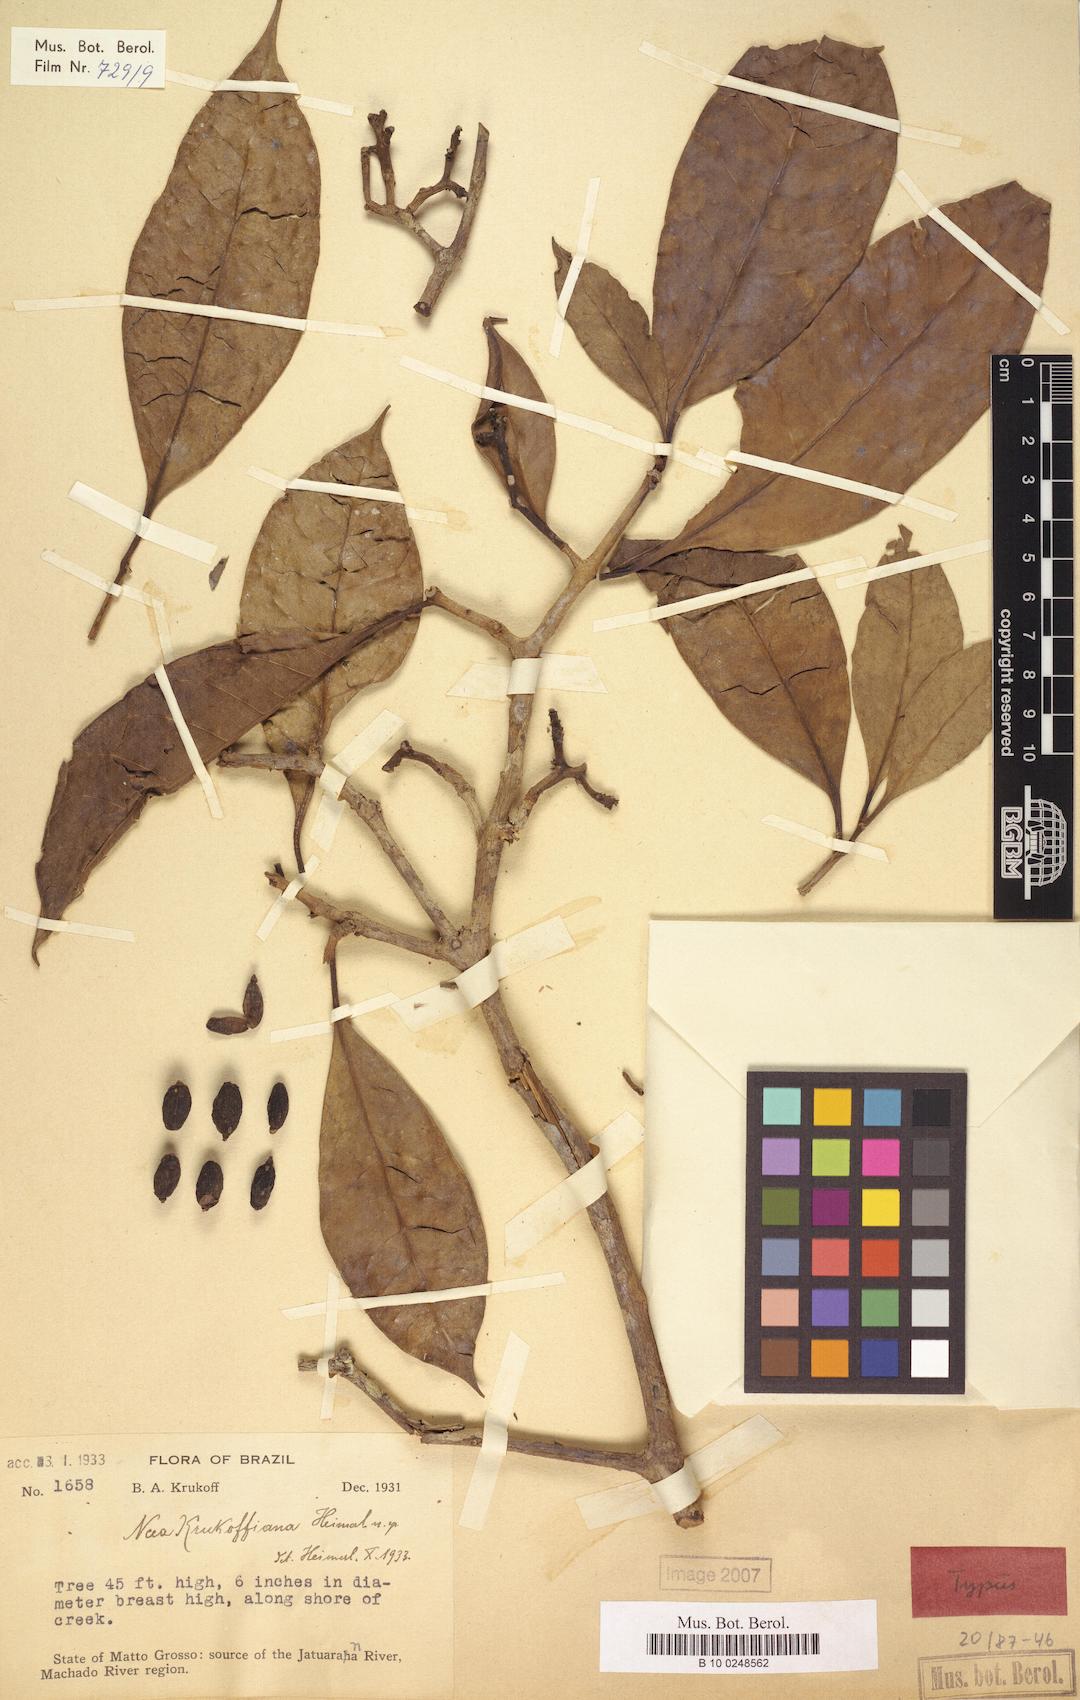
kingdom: Plantae
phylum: Tracheophyta
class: Magnoliopsida
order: Caryophyllales
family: Nyctaginaceae
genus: Neea
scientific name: Neea
